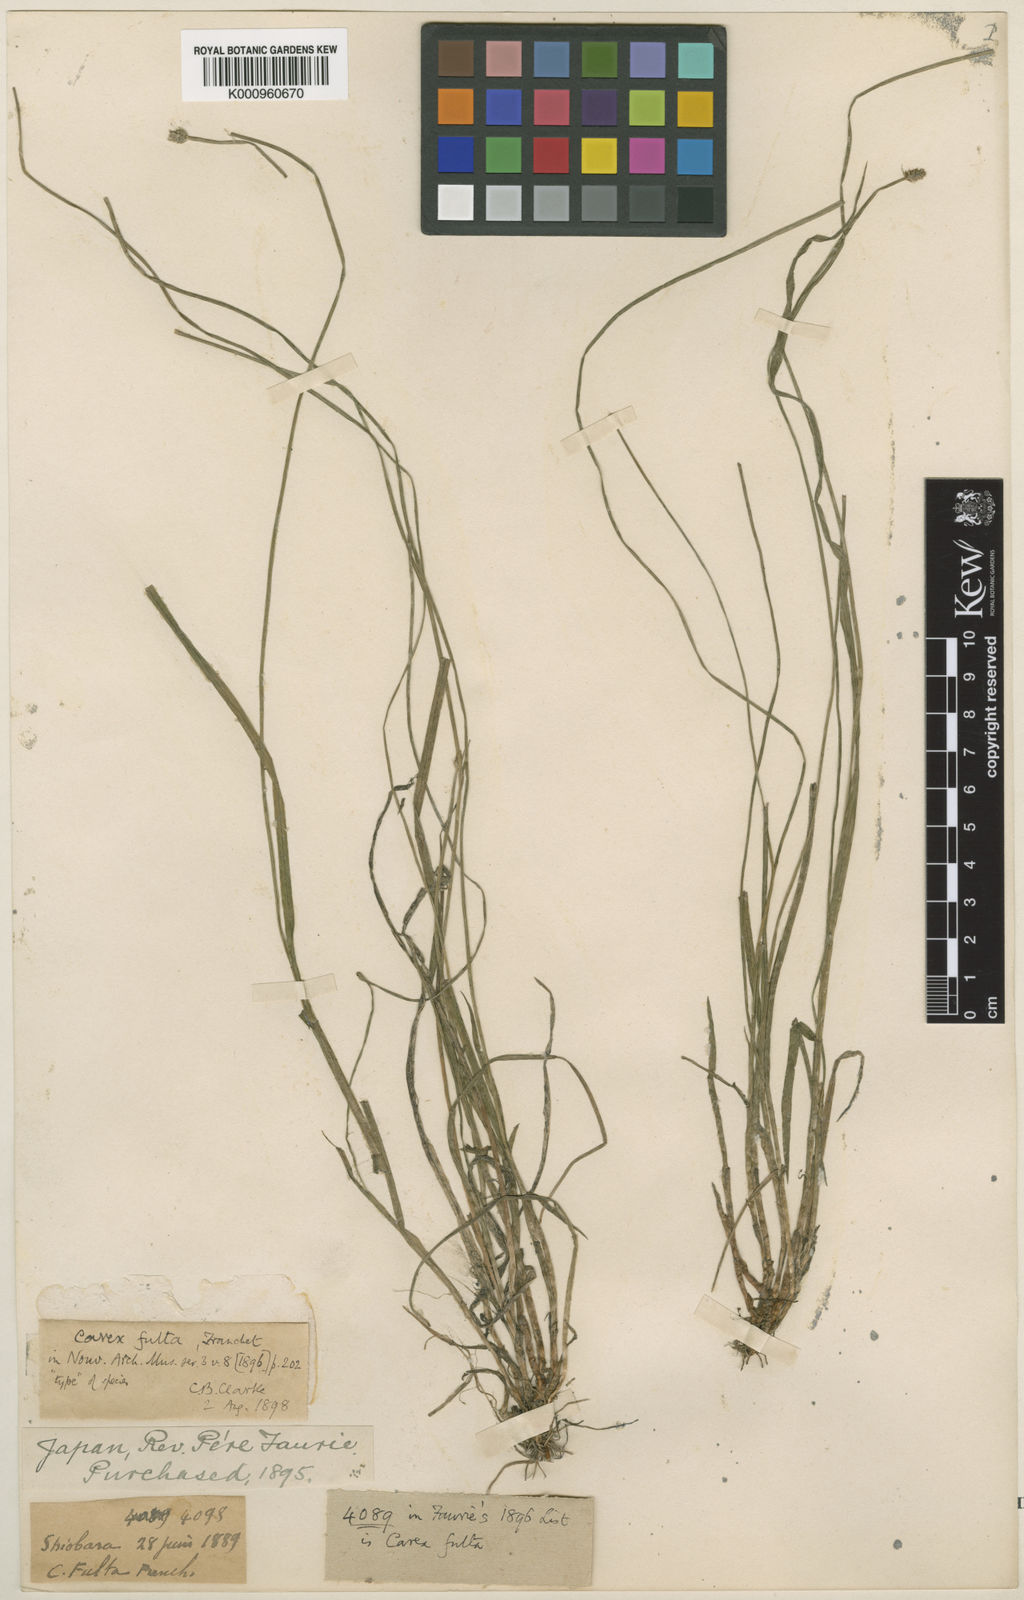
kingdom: Plantae
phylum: Tracheophyta
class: Liliopsida
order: Poales
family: Cyperaceae
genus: Carex
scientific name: Carex fulta
